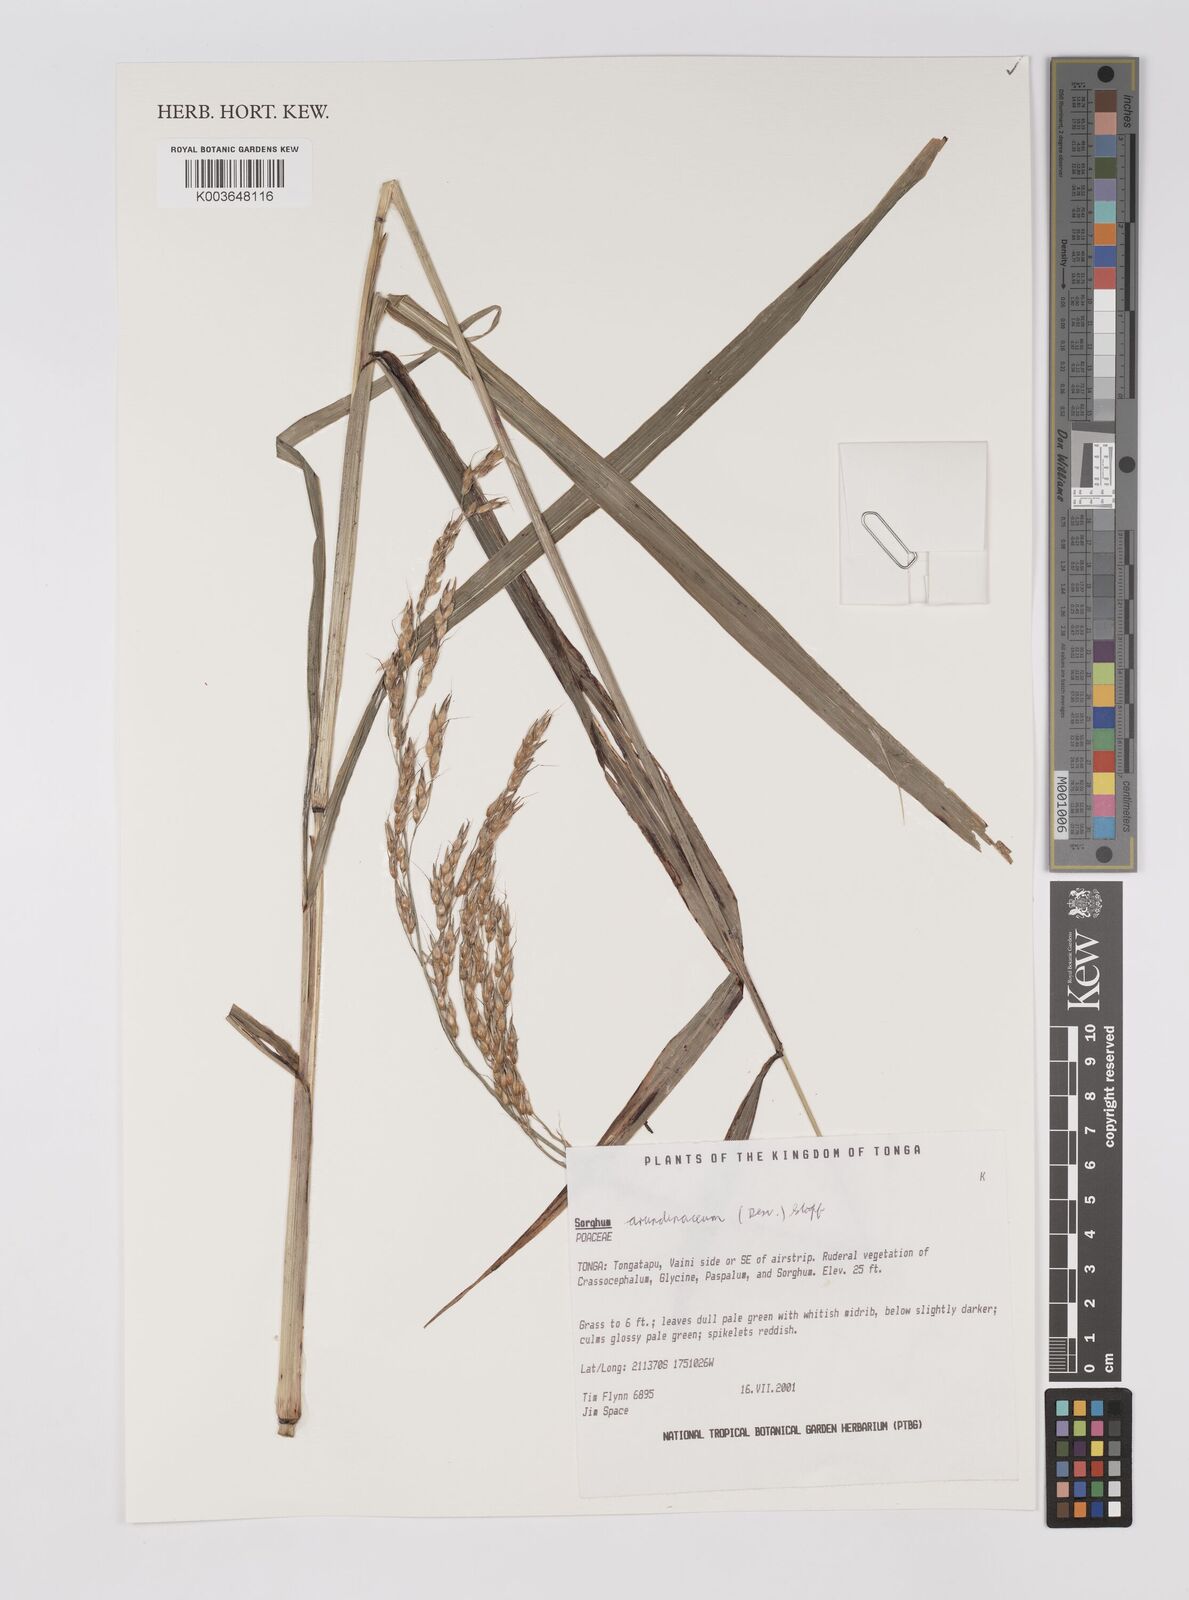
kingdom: Plantae
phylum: Tracheophyta
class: Liliopsida
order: Poales
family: Poaceae
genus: Sorghum
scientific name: Sorghum arundinaceum
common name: Sorghum
